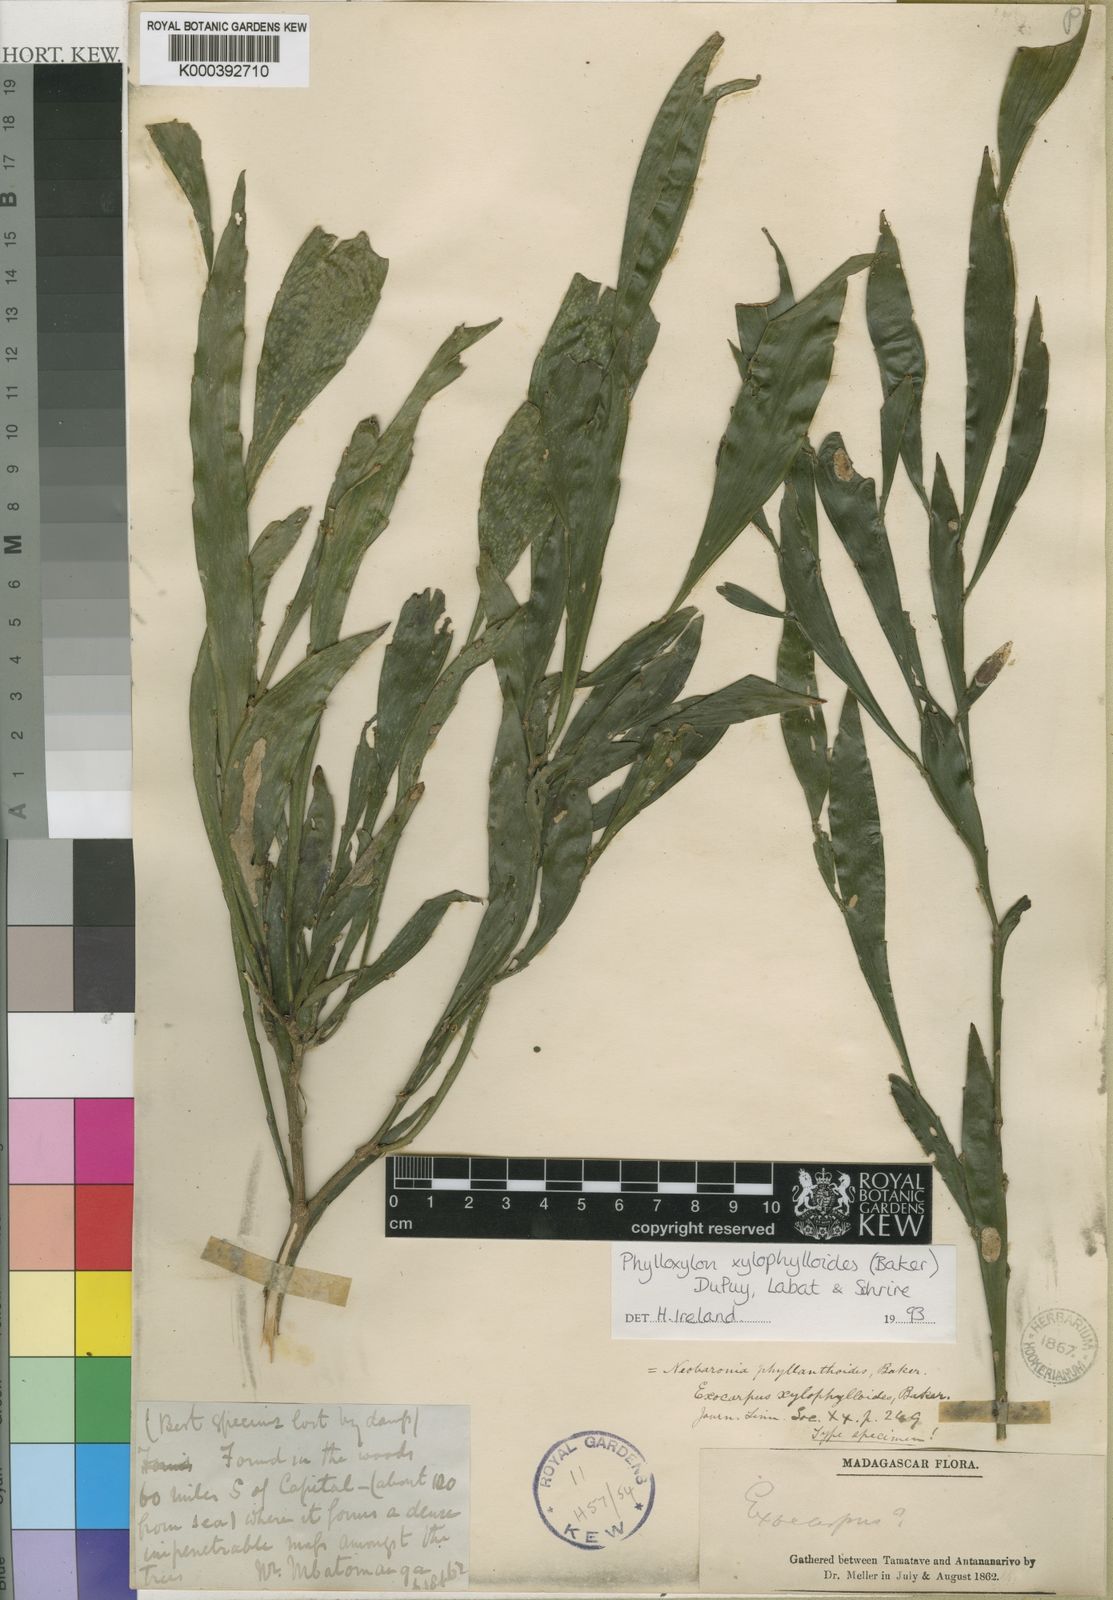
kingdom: Plantae
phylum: Tracheophyta
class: Magnoliopsida
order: Fabales
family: Fabaceae
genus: Phylloxylon
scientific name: Phylloxylon xylophylloides
